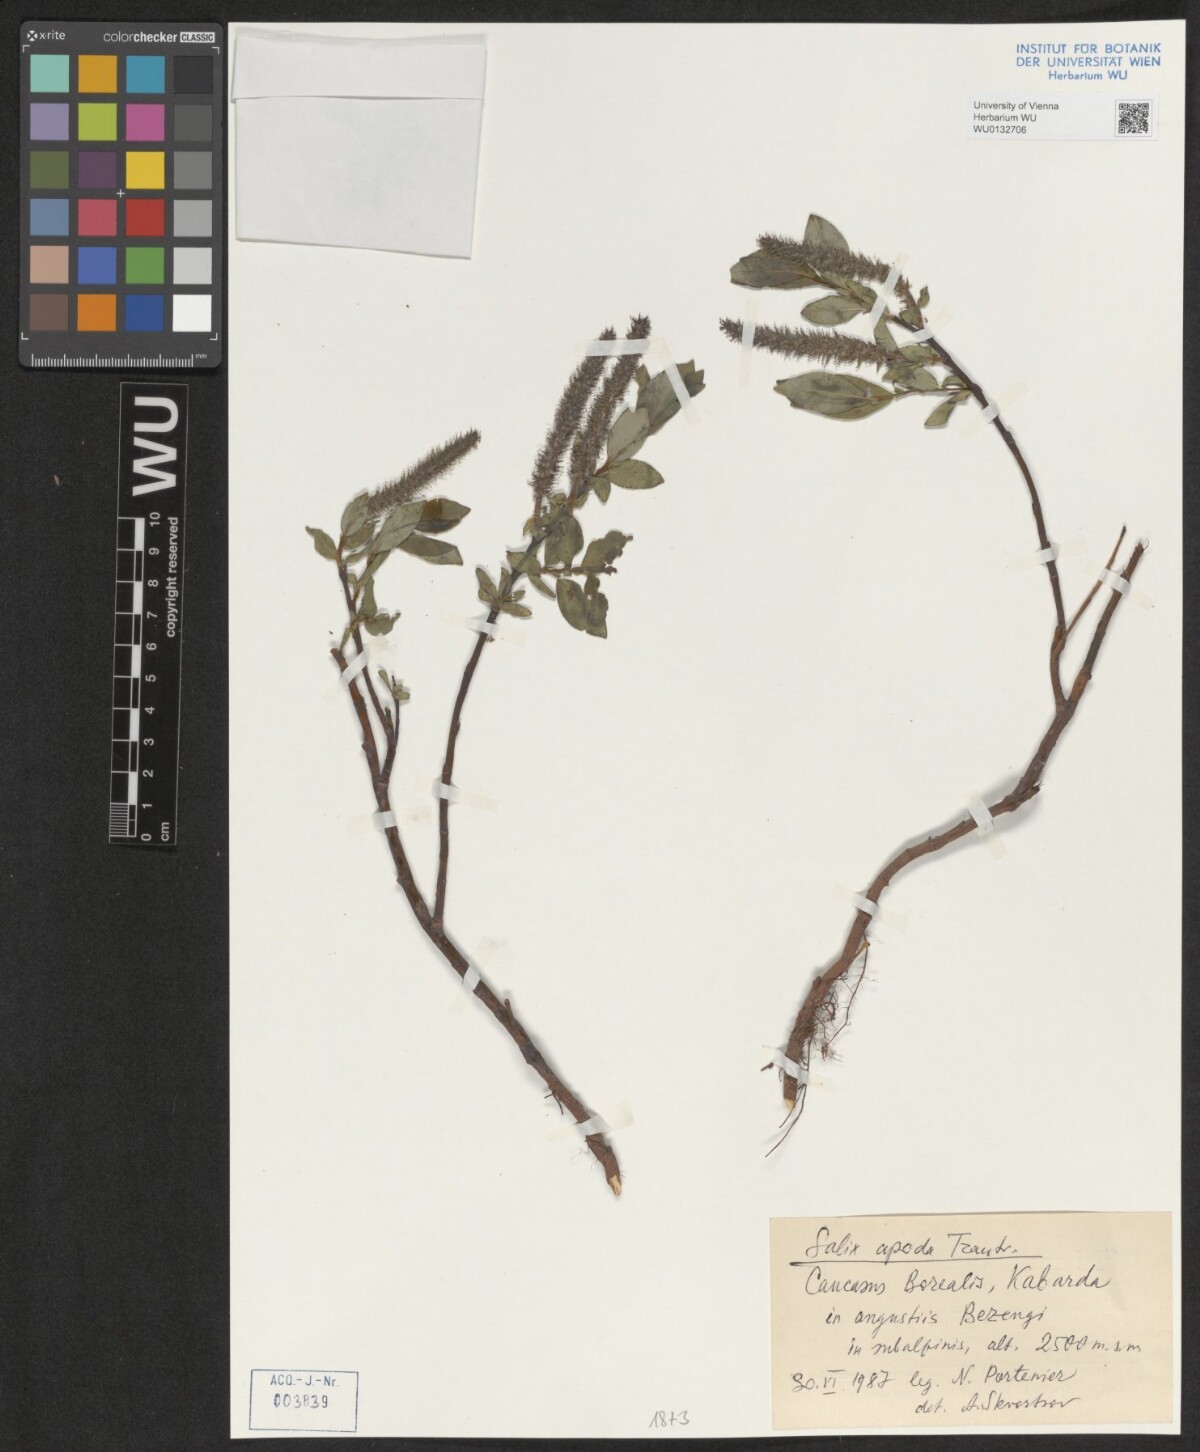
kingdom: Plantae
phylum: Tracheophyta
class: Magnoliopsida
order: Malpighiales
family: Salicaceae
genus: Salix
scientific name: Salix apoda
